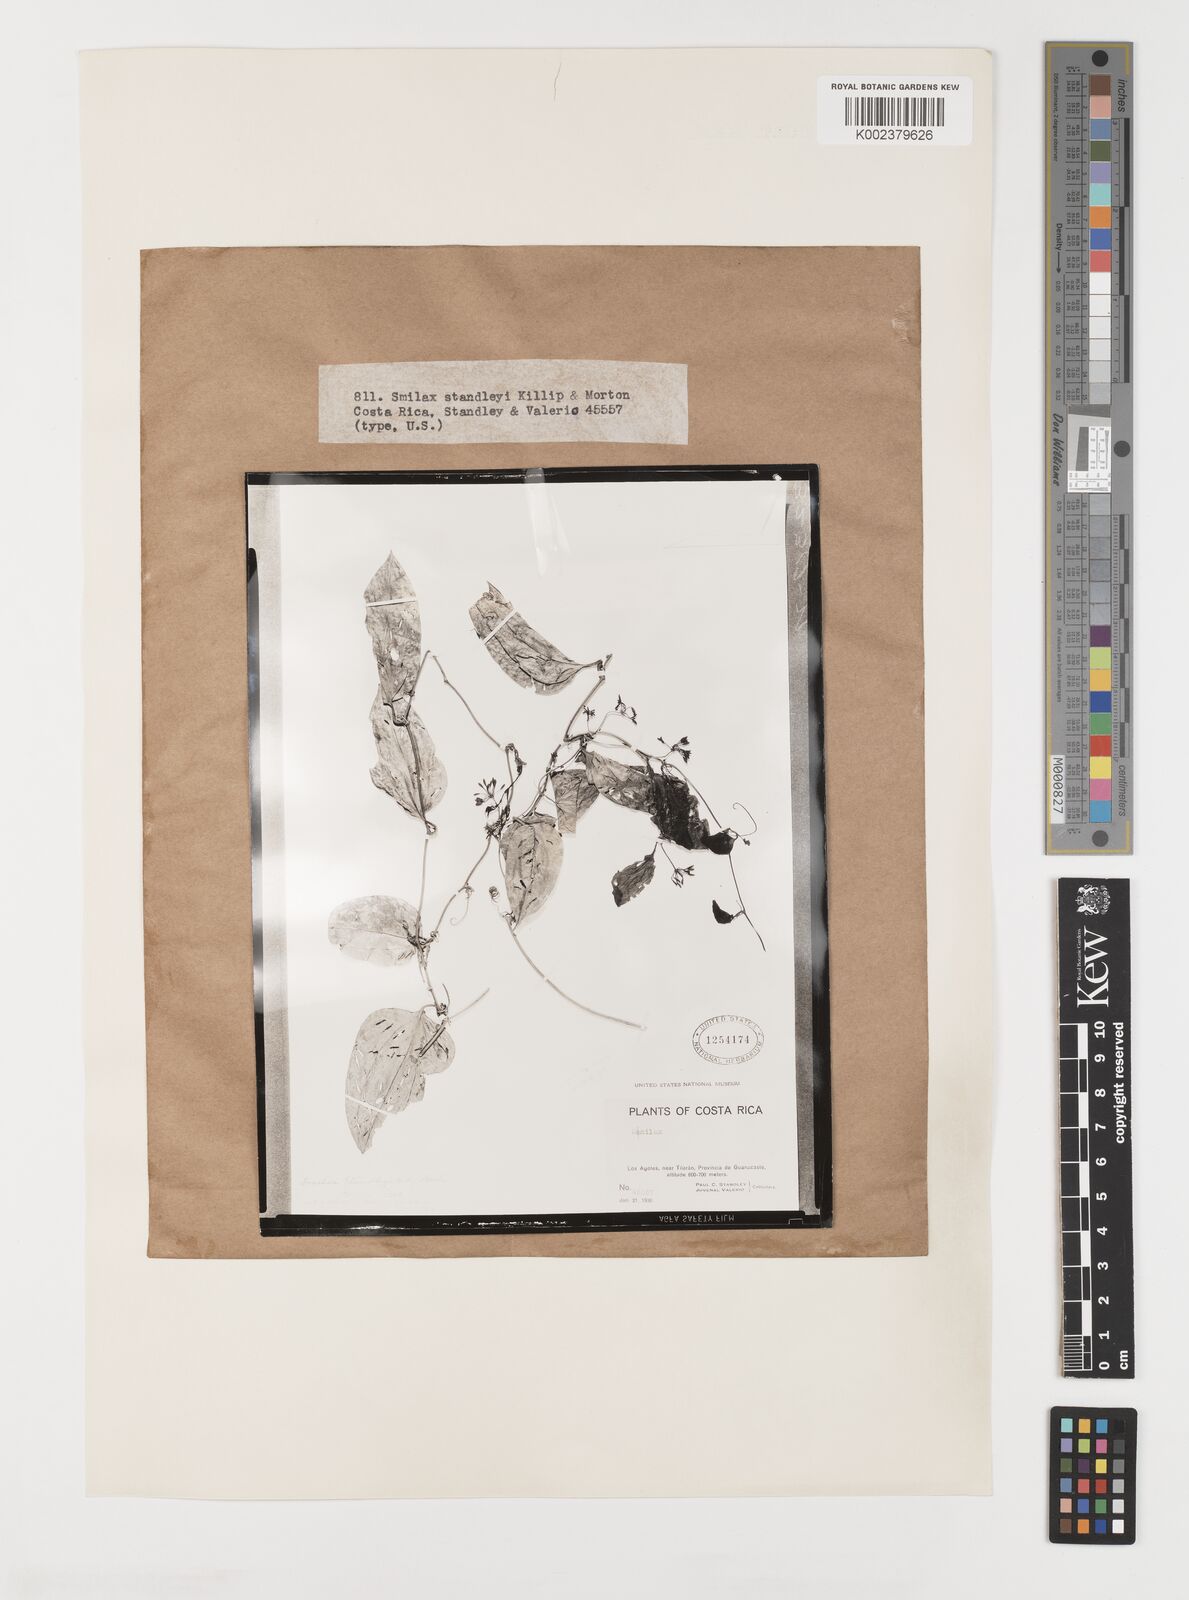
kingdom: Plantae
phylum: Tracheophyta
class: Liliopsida
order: Liliales
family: Smilacaceae
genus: Smilax
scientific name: Smilax officinalis
